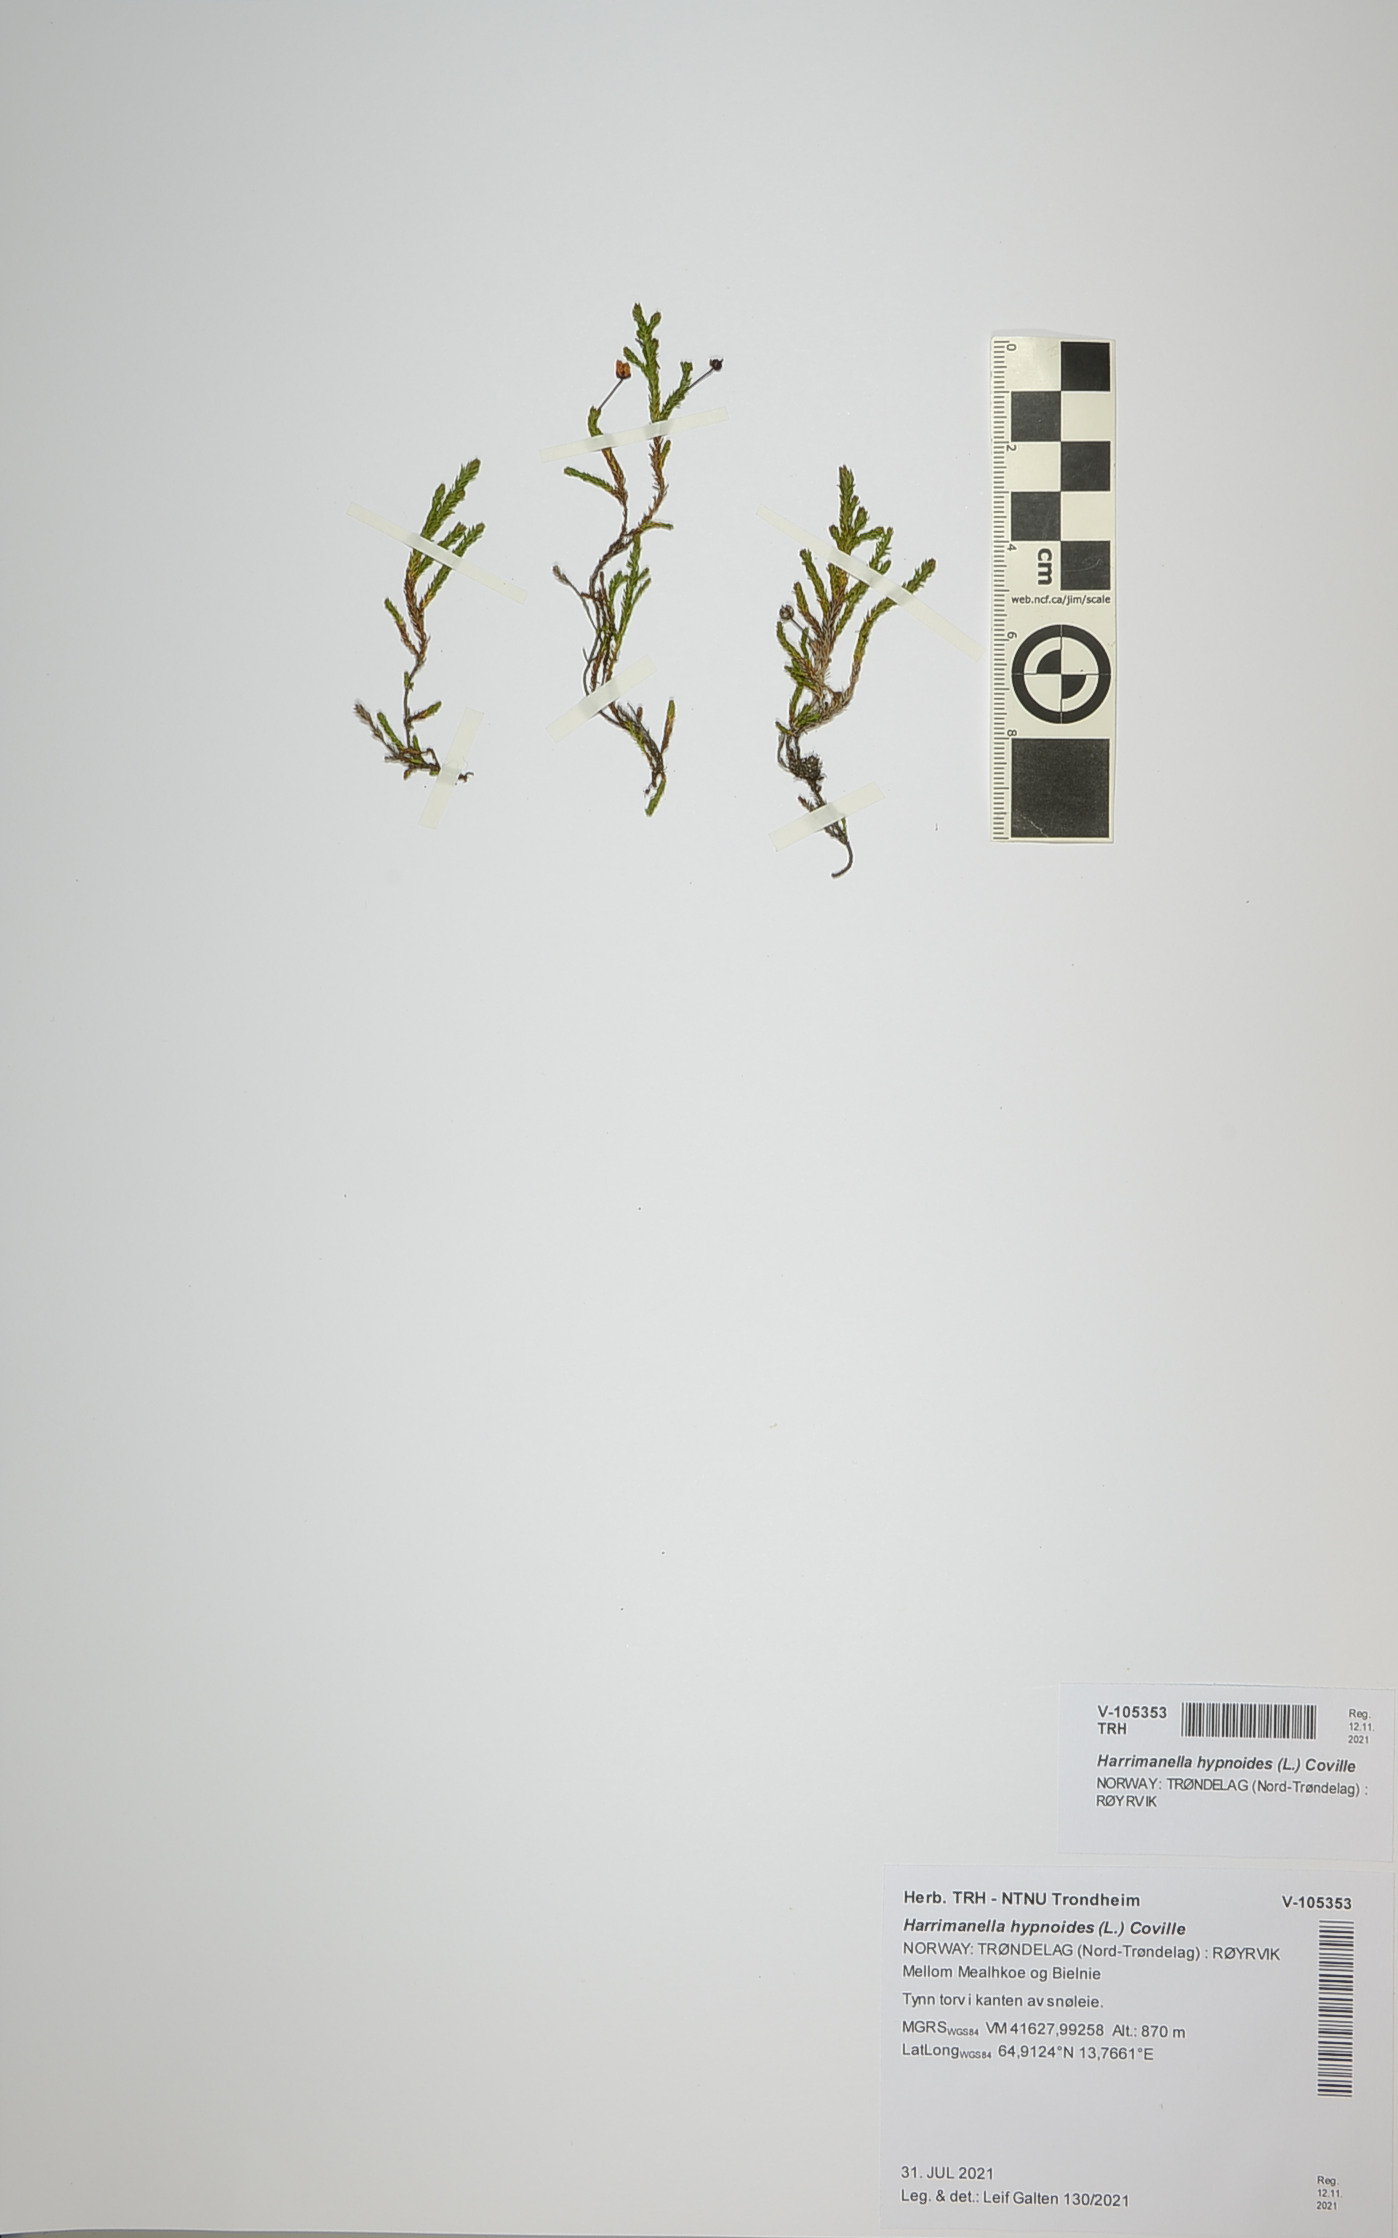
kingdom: Plantae
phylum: Tracheophyta
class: Magnoliopsida
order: Ericales
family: Ericaceae
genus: Harrimanella
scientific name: Harrimanella hypnoides
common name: Moss bell heather
